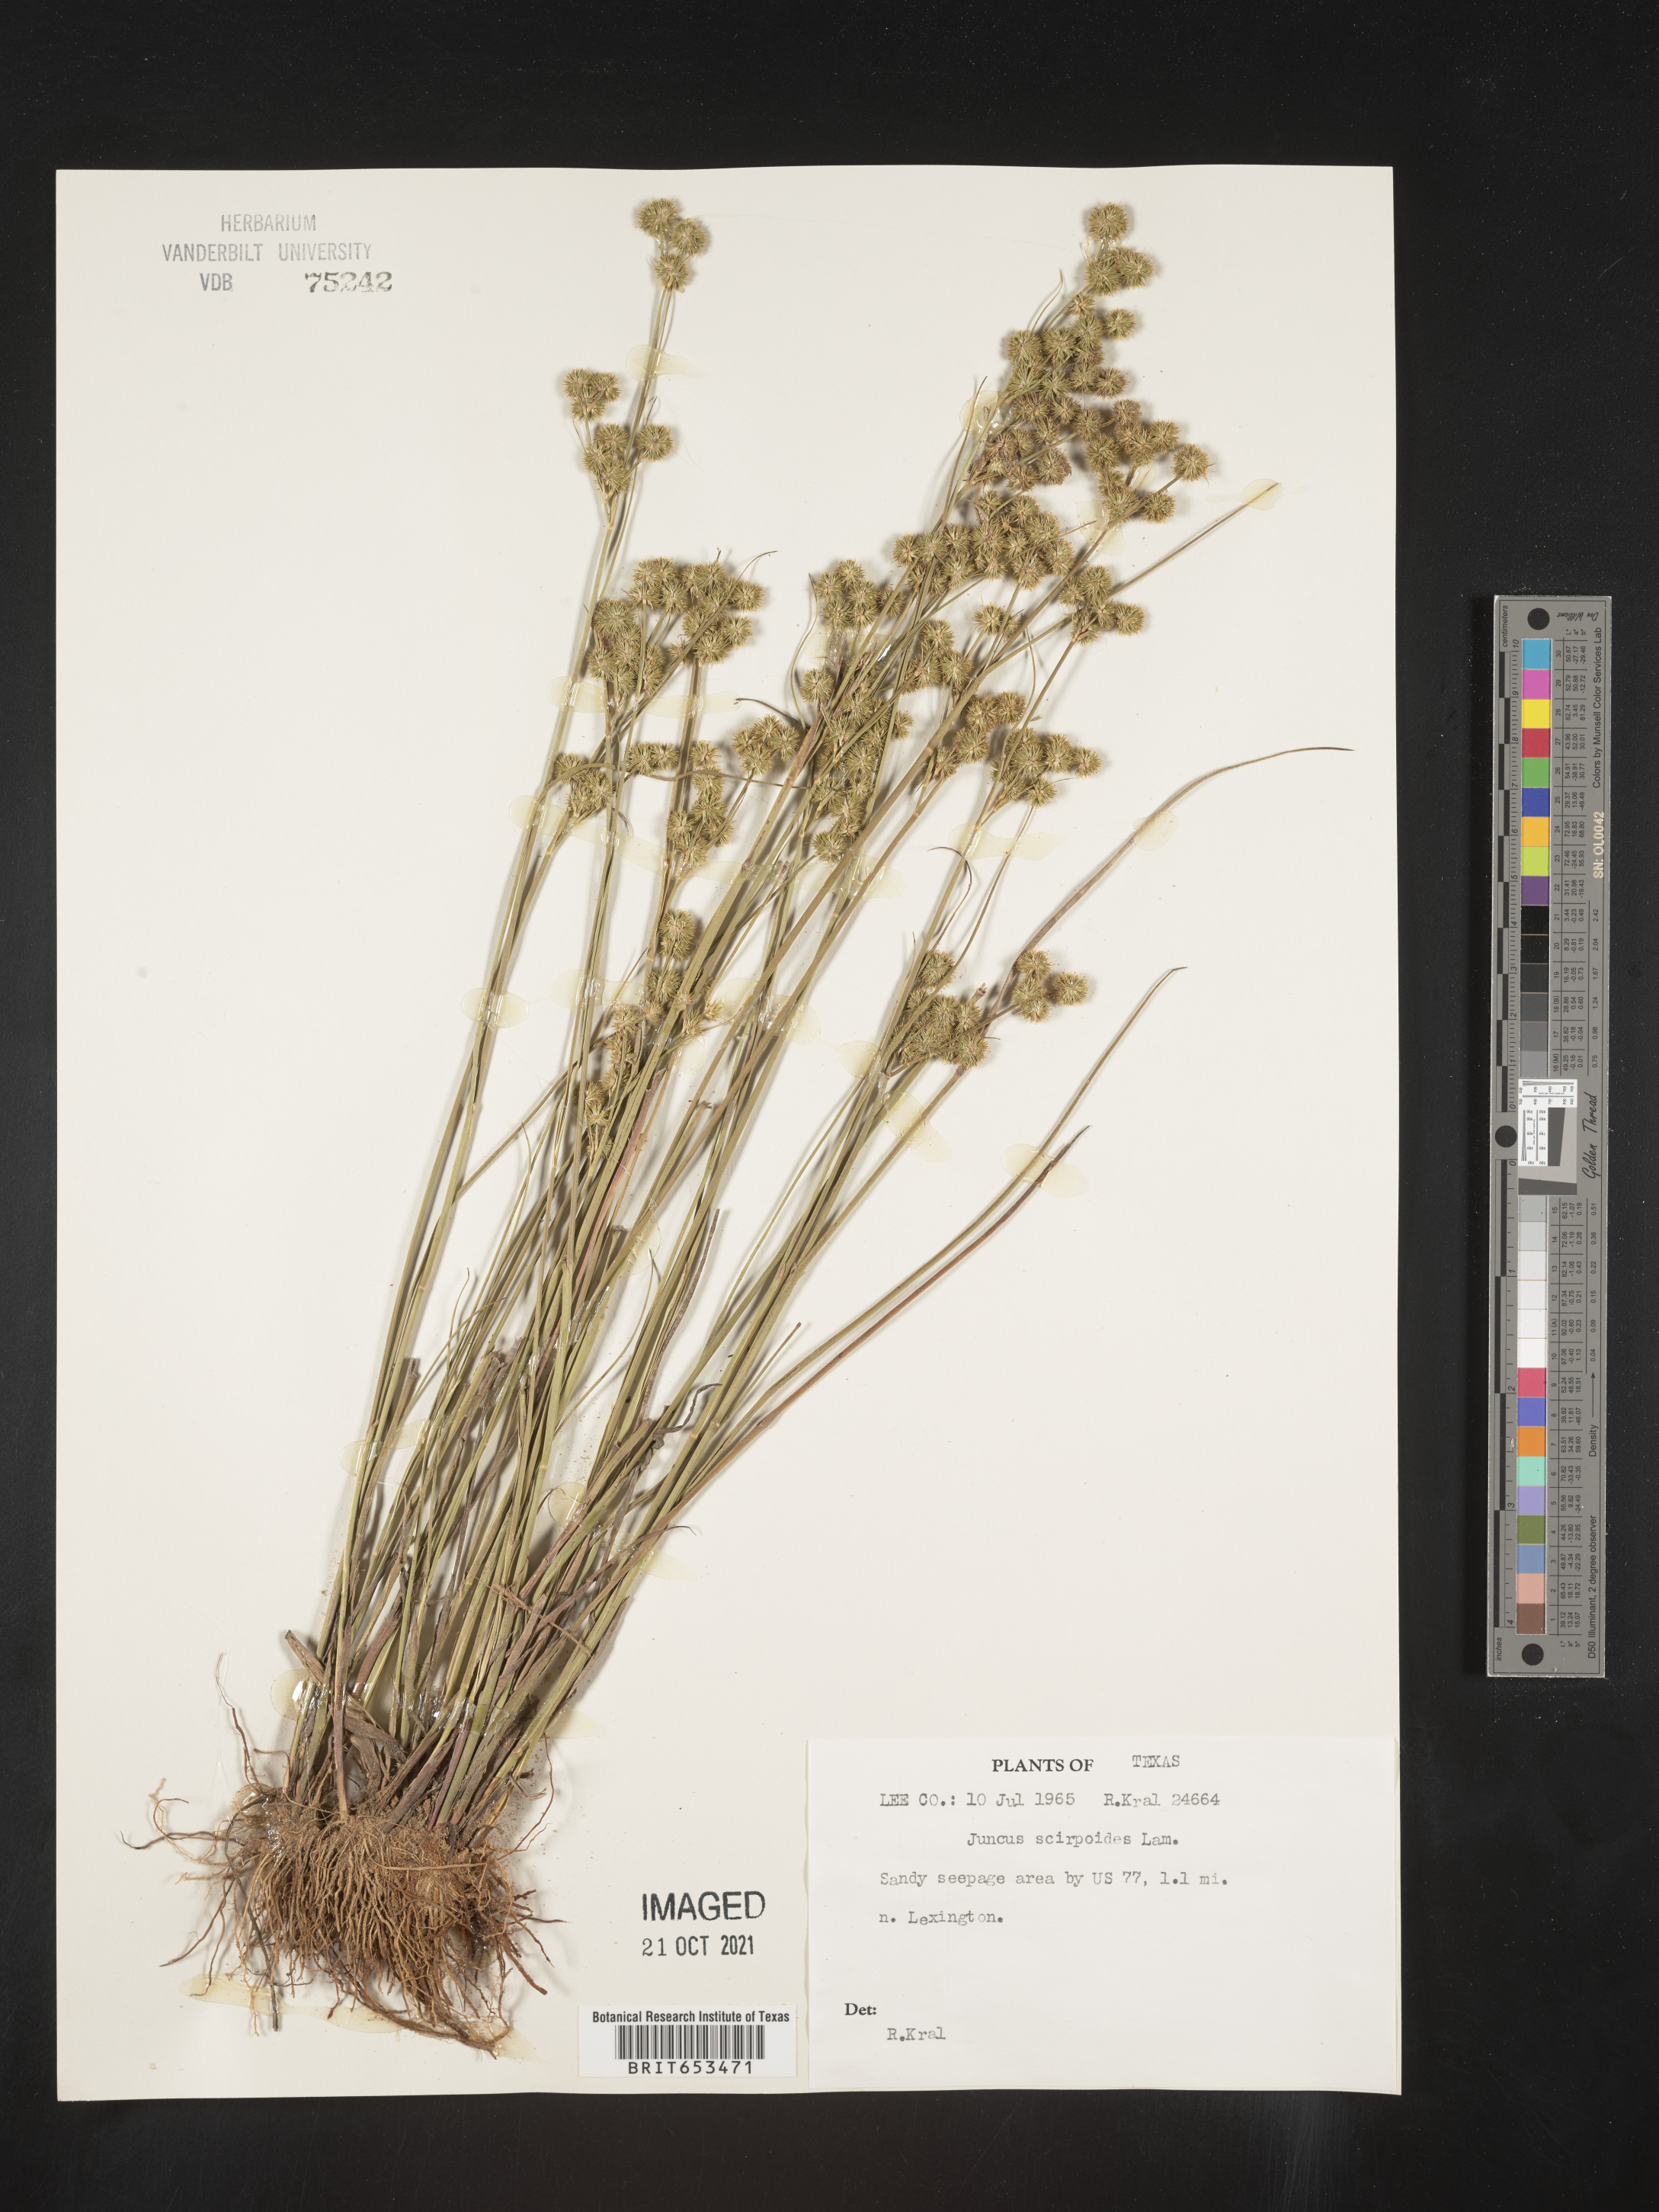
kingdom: Plantae
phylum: Tracheophyta
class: Liliopsida
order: Poales
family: Juncaceae
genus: Juncus
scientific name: Juncus scirpoides
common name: Needlepod rush
